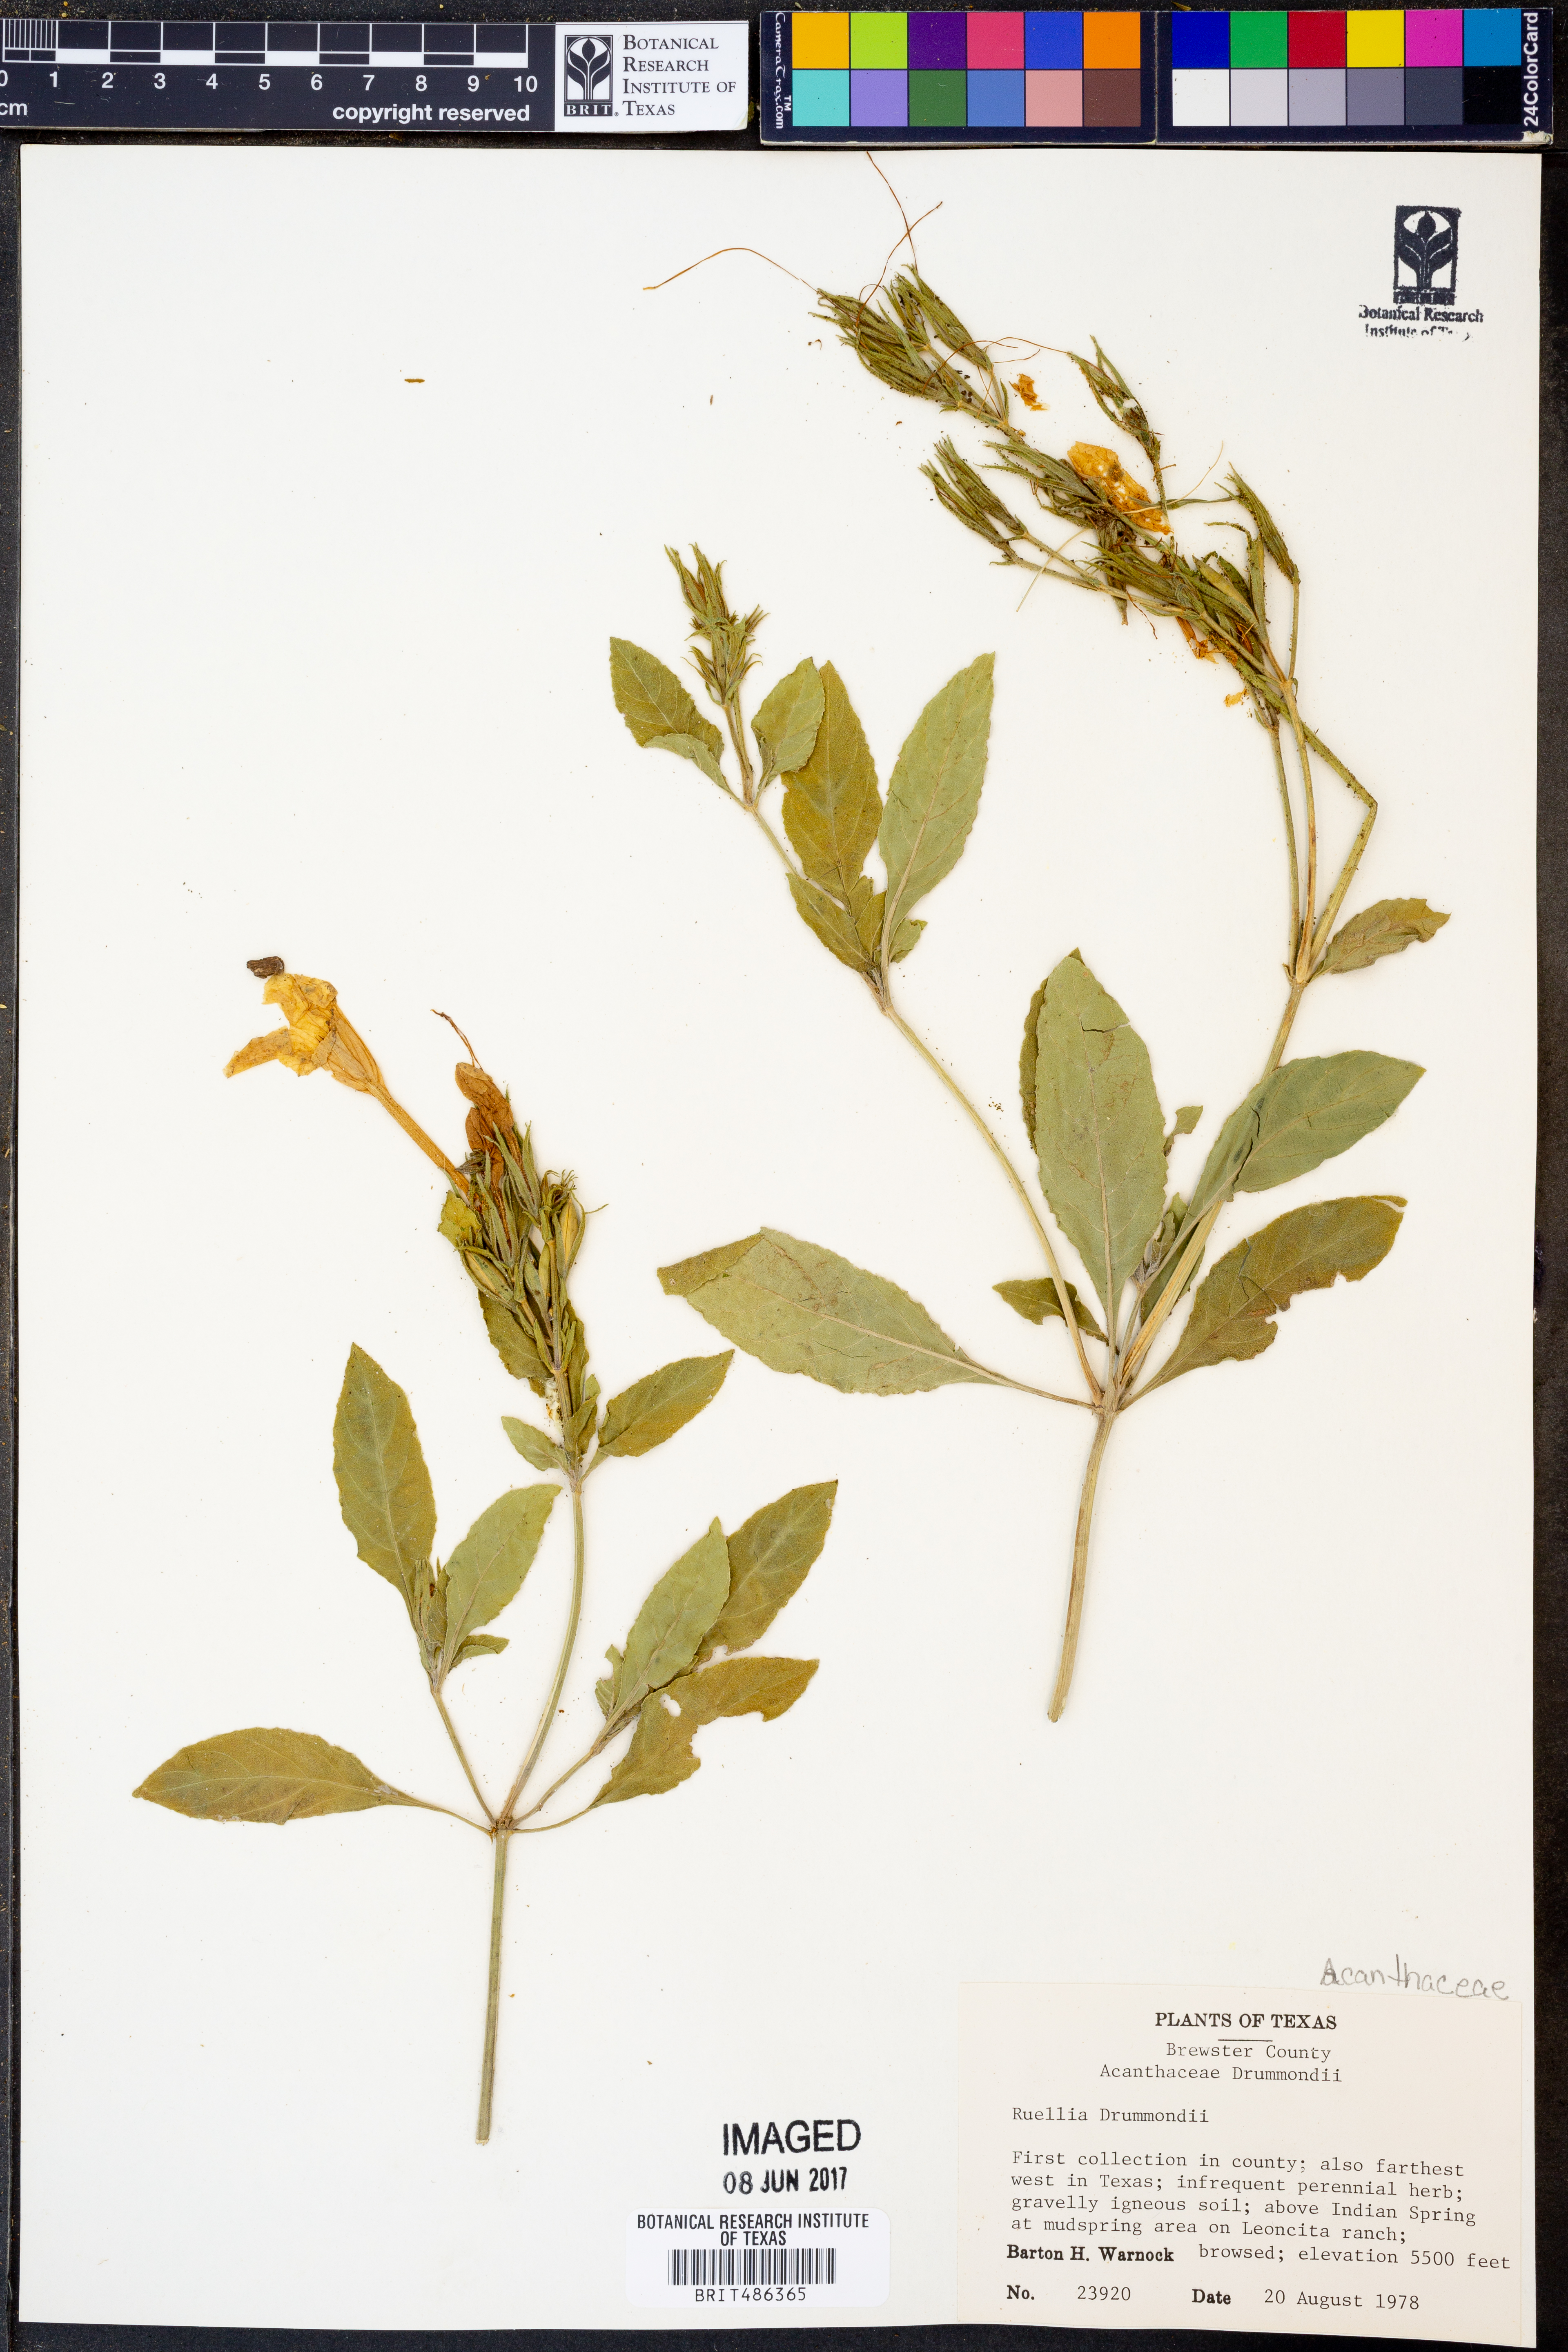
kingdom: Plantae
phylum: Tracheophyta
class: Magnoliopsida
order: Lamiales
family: Acanthaceae
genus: Ruellia
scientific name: Ruellia
